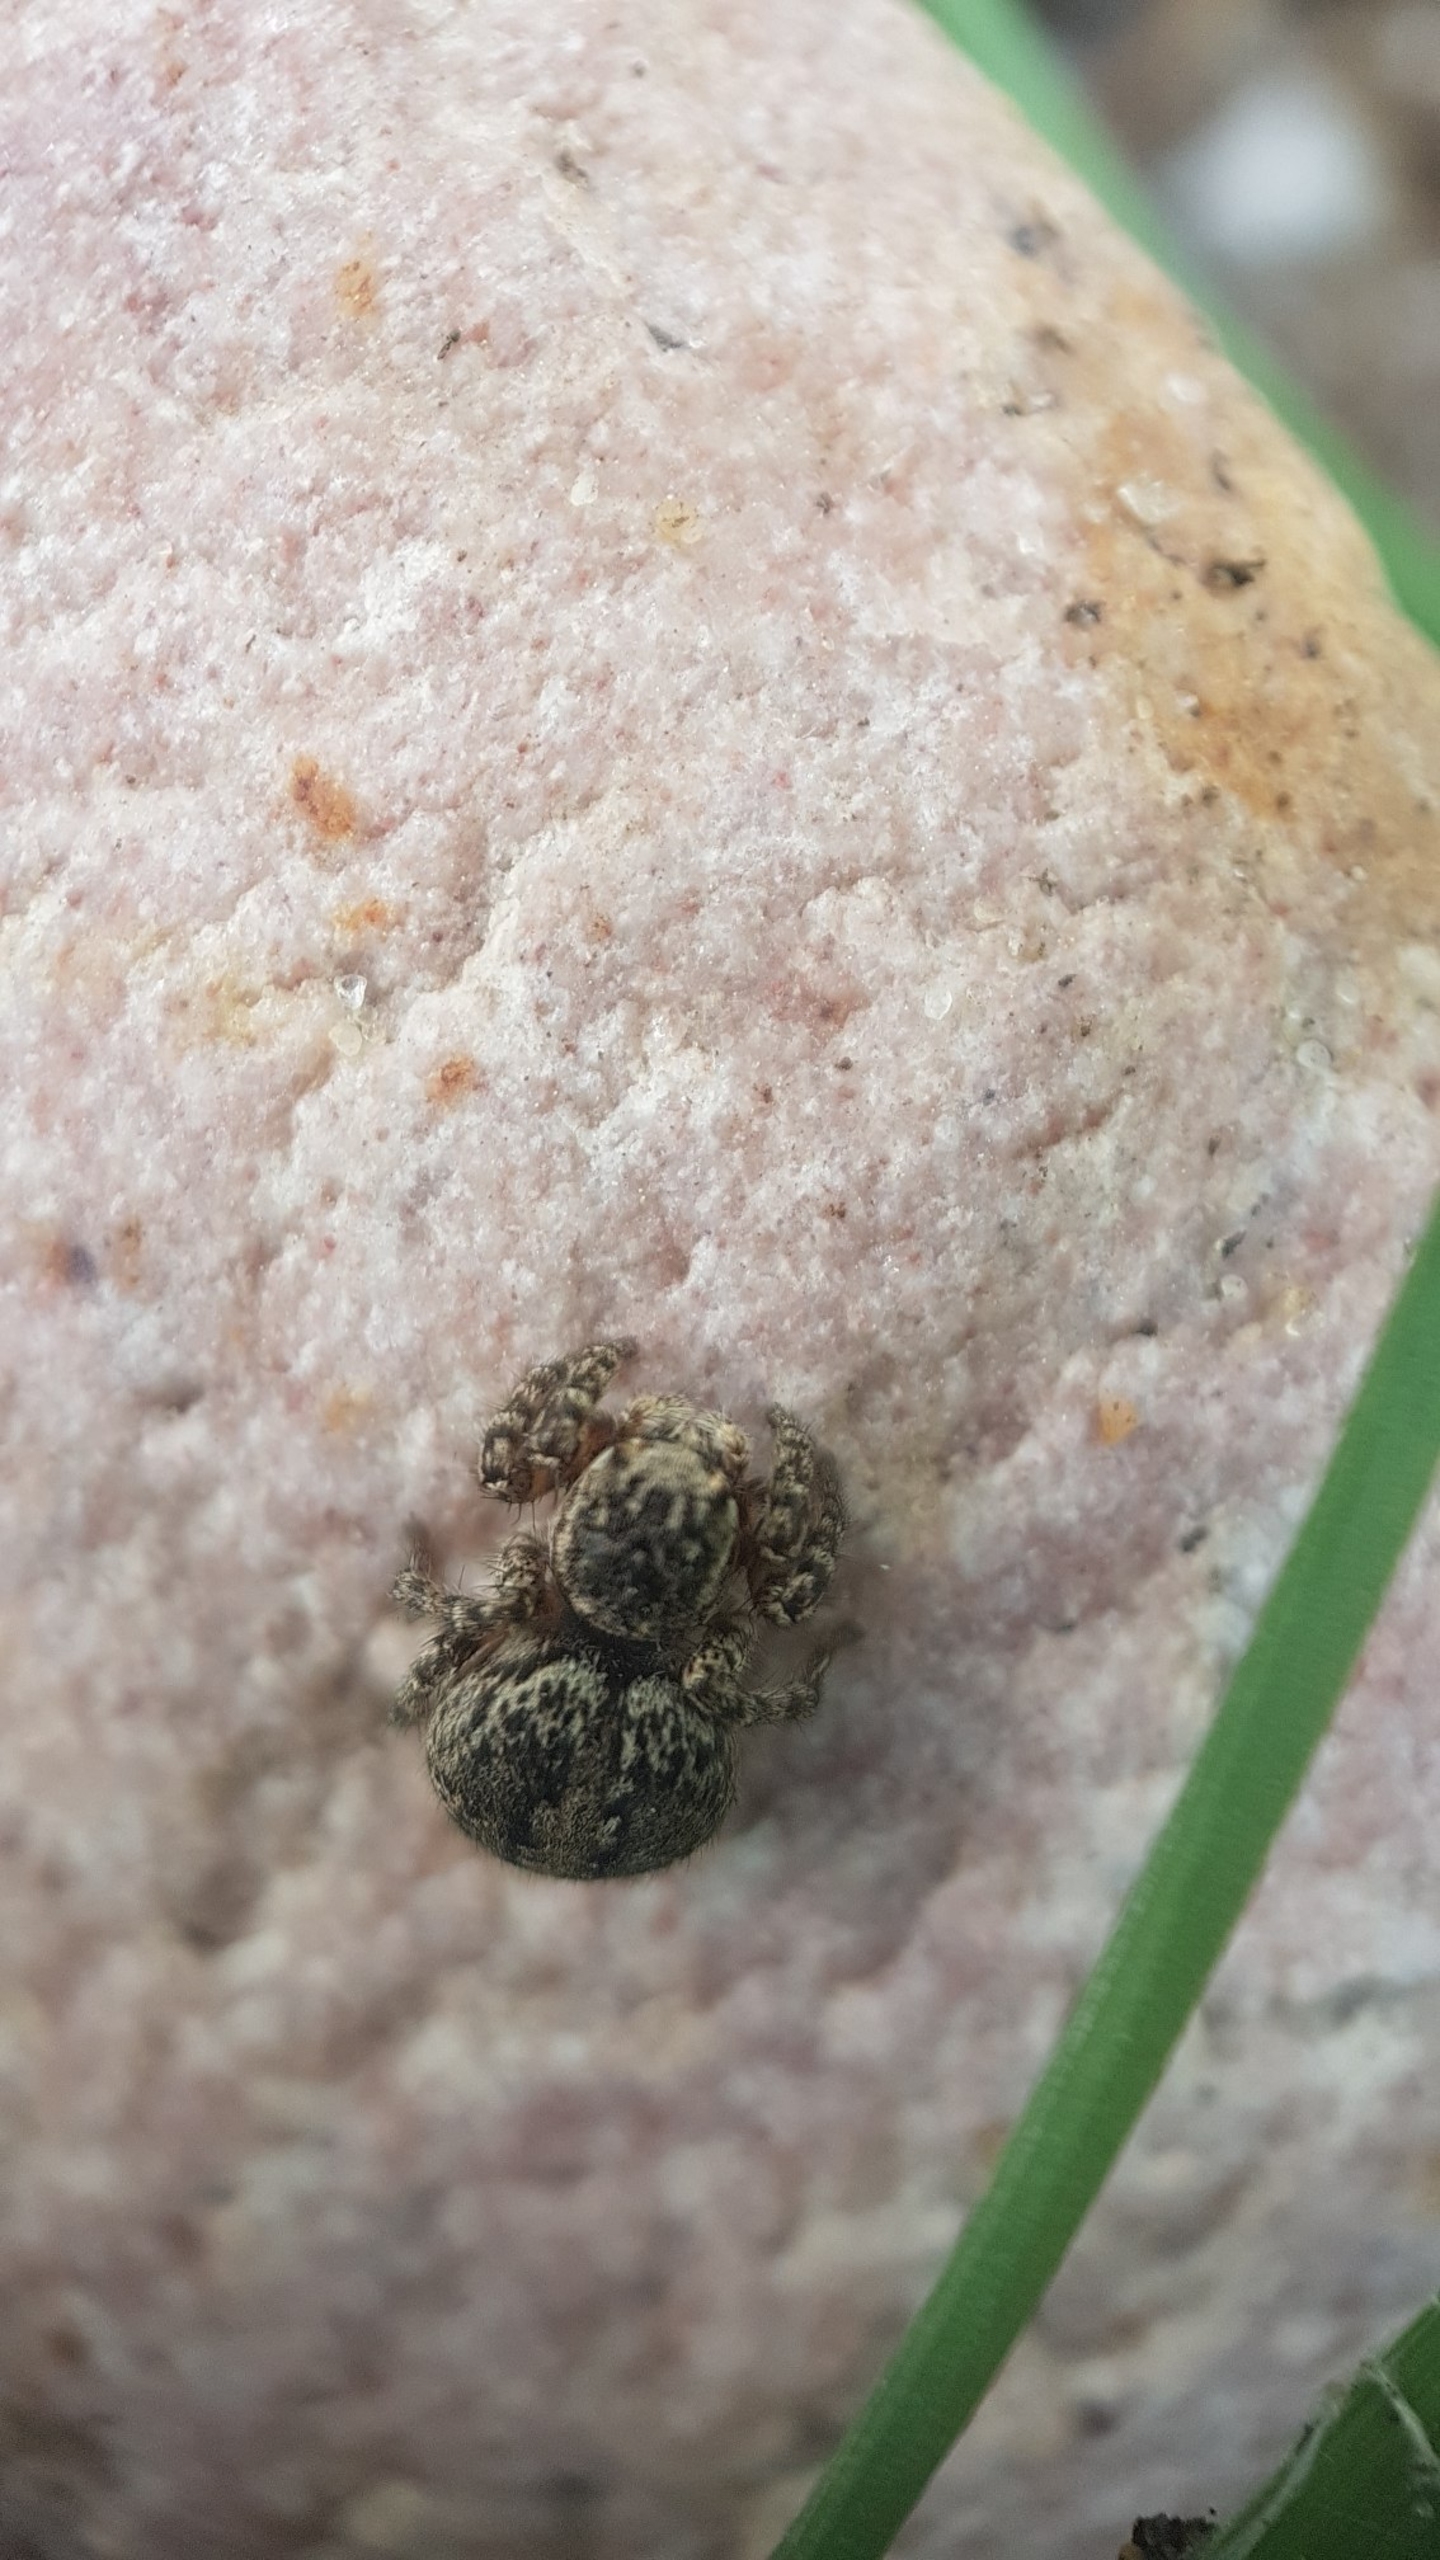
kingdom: Animalia
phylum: Arthropoda
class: Arachnida
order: Araneae
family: Salticidae
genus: Aelurillus
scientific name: Aelurillus v-insignitus
